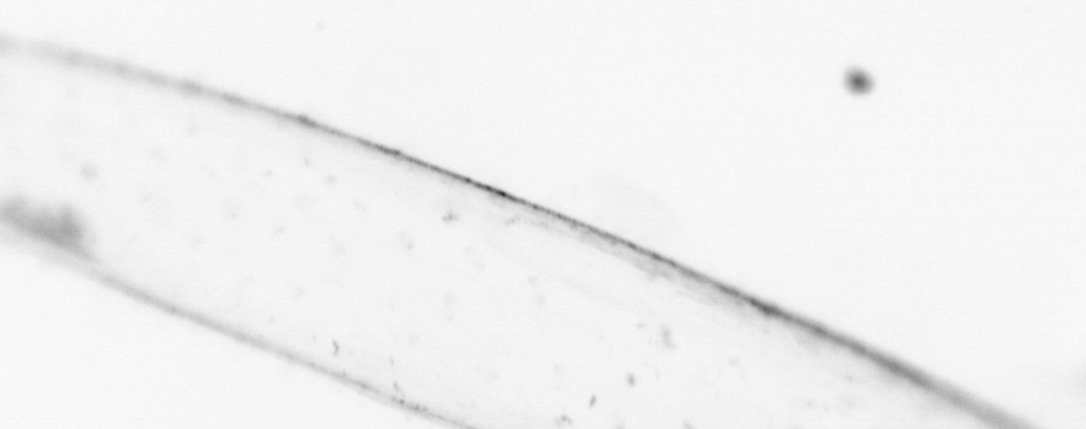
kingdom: Animalia
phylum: Chaetognatha
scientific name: Chaetognatha
